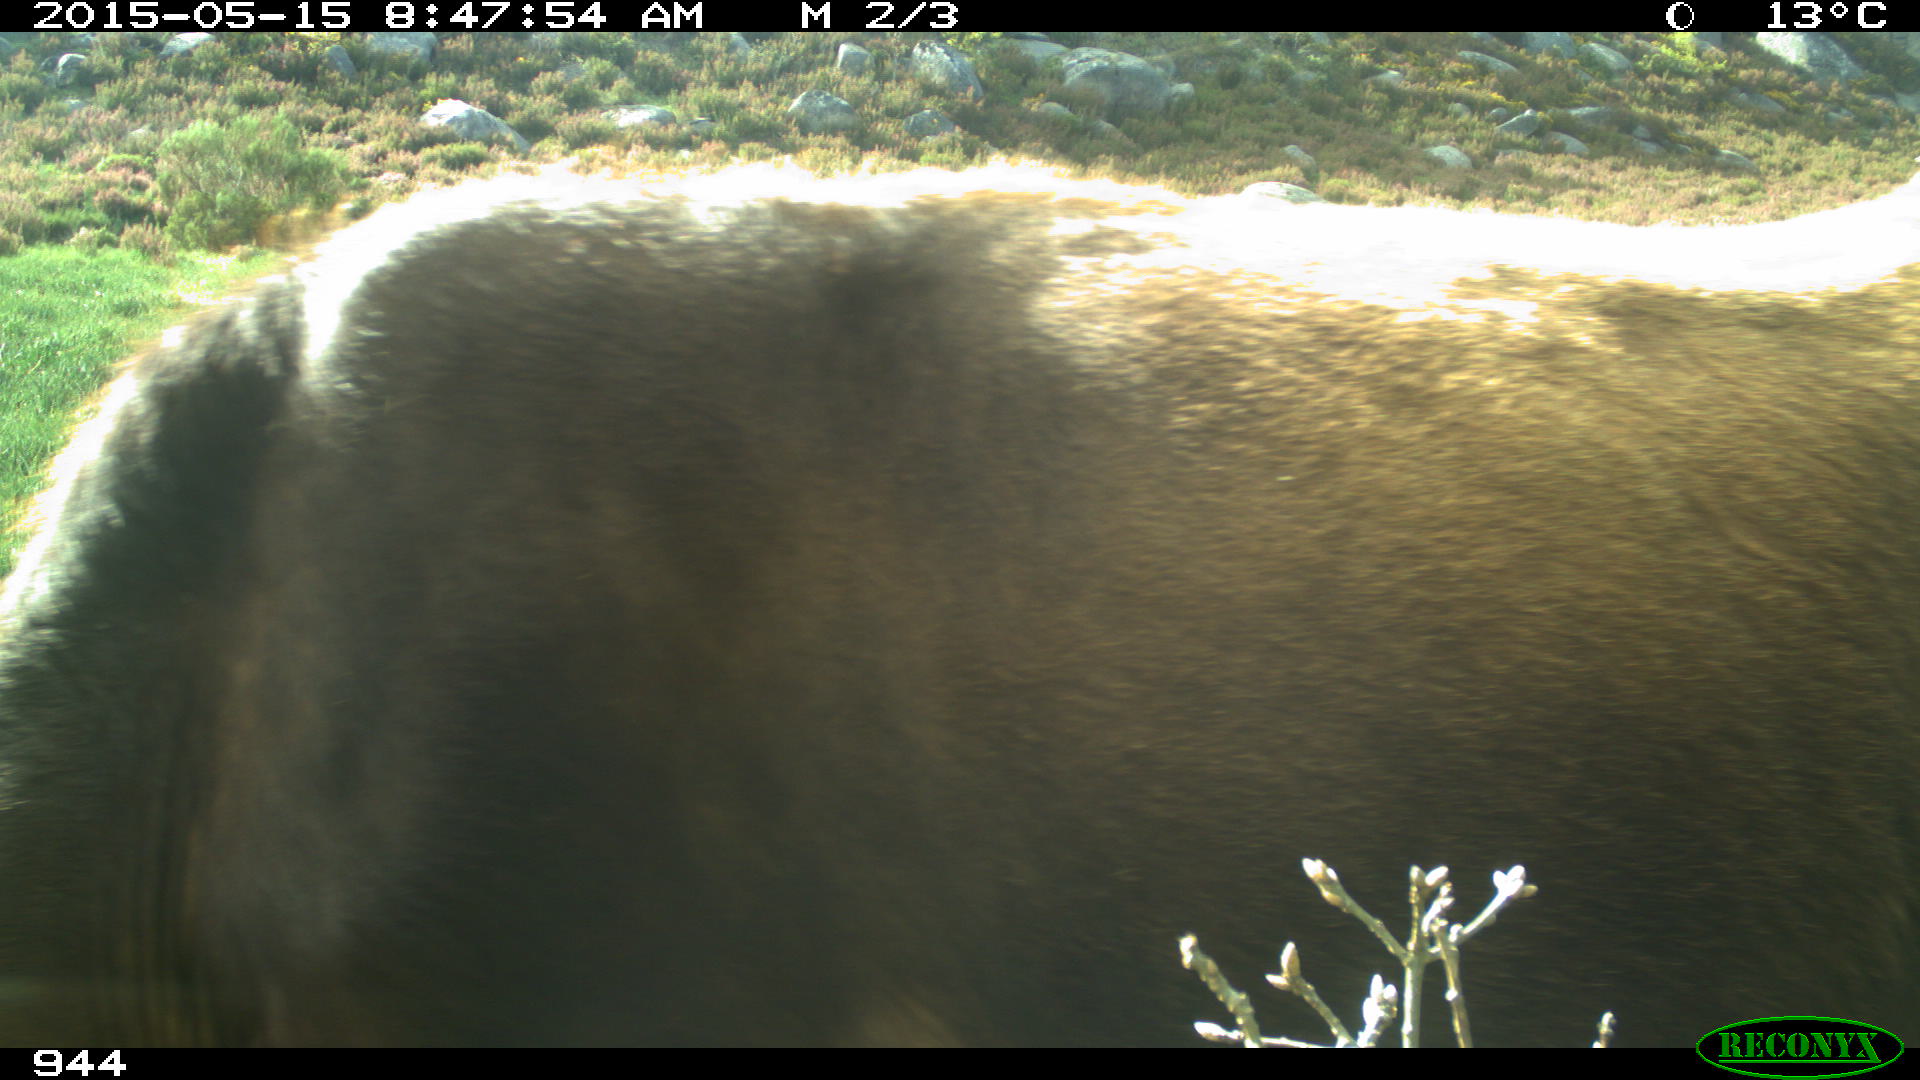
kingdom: Animalia
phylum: Chordata
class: Mammalia
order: Artiodactyla
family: Bovidae
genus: Bos
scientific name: Bos taurus
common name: Domesticated cattle
